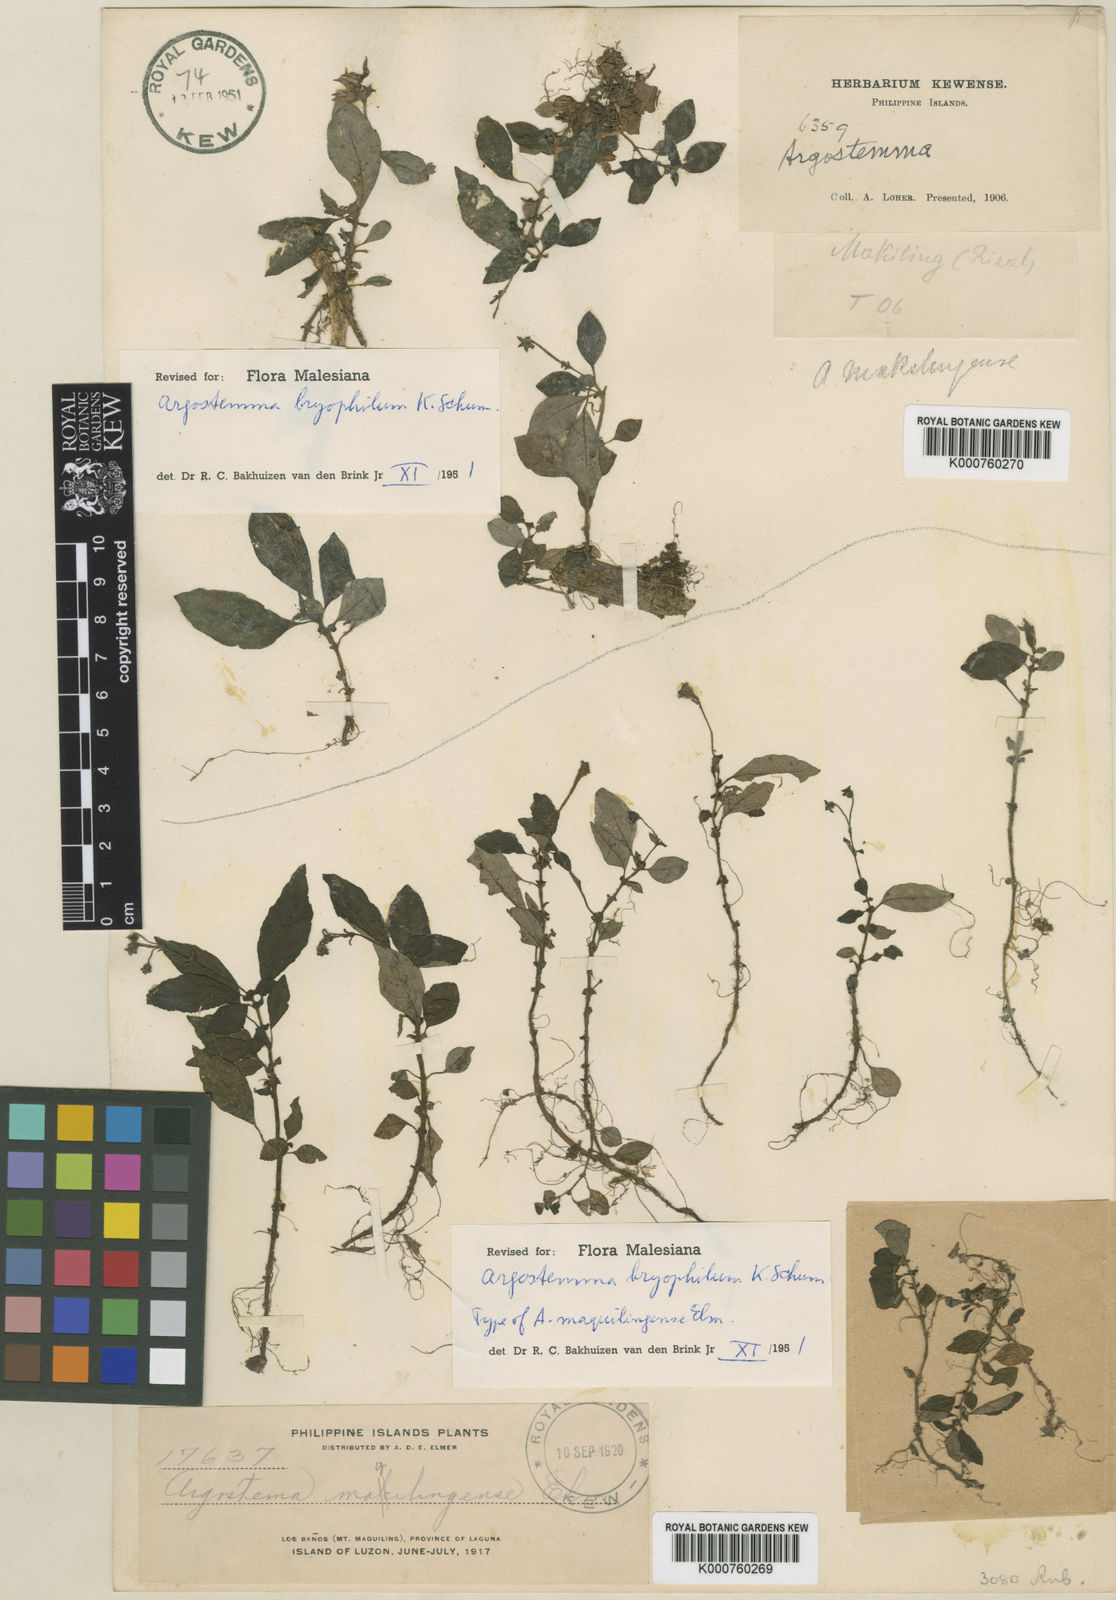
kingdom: Plantae
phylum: Tracheophyta
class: Magnoliopsida
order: Gentianales
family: Rubiaceae
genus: Argostemma
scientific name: Argostemma bryophilum
